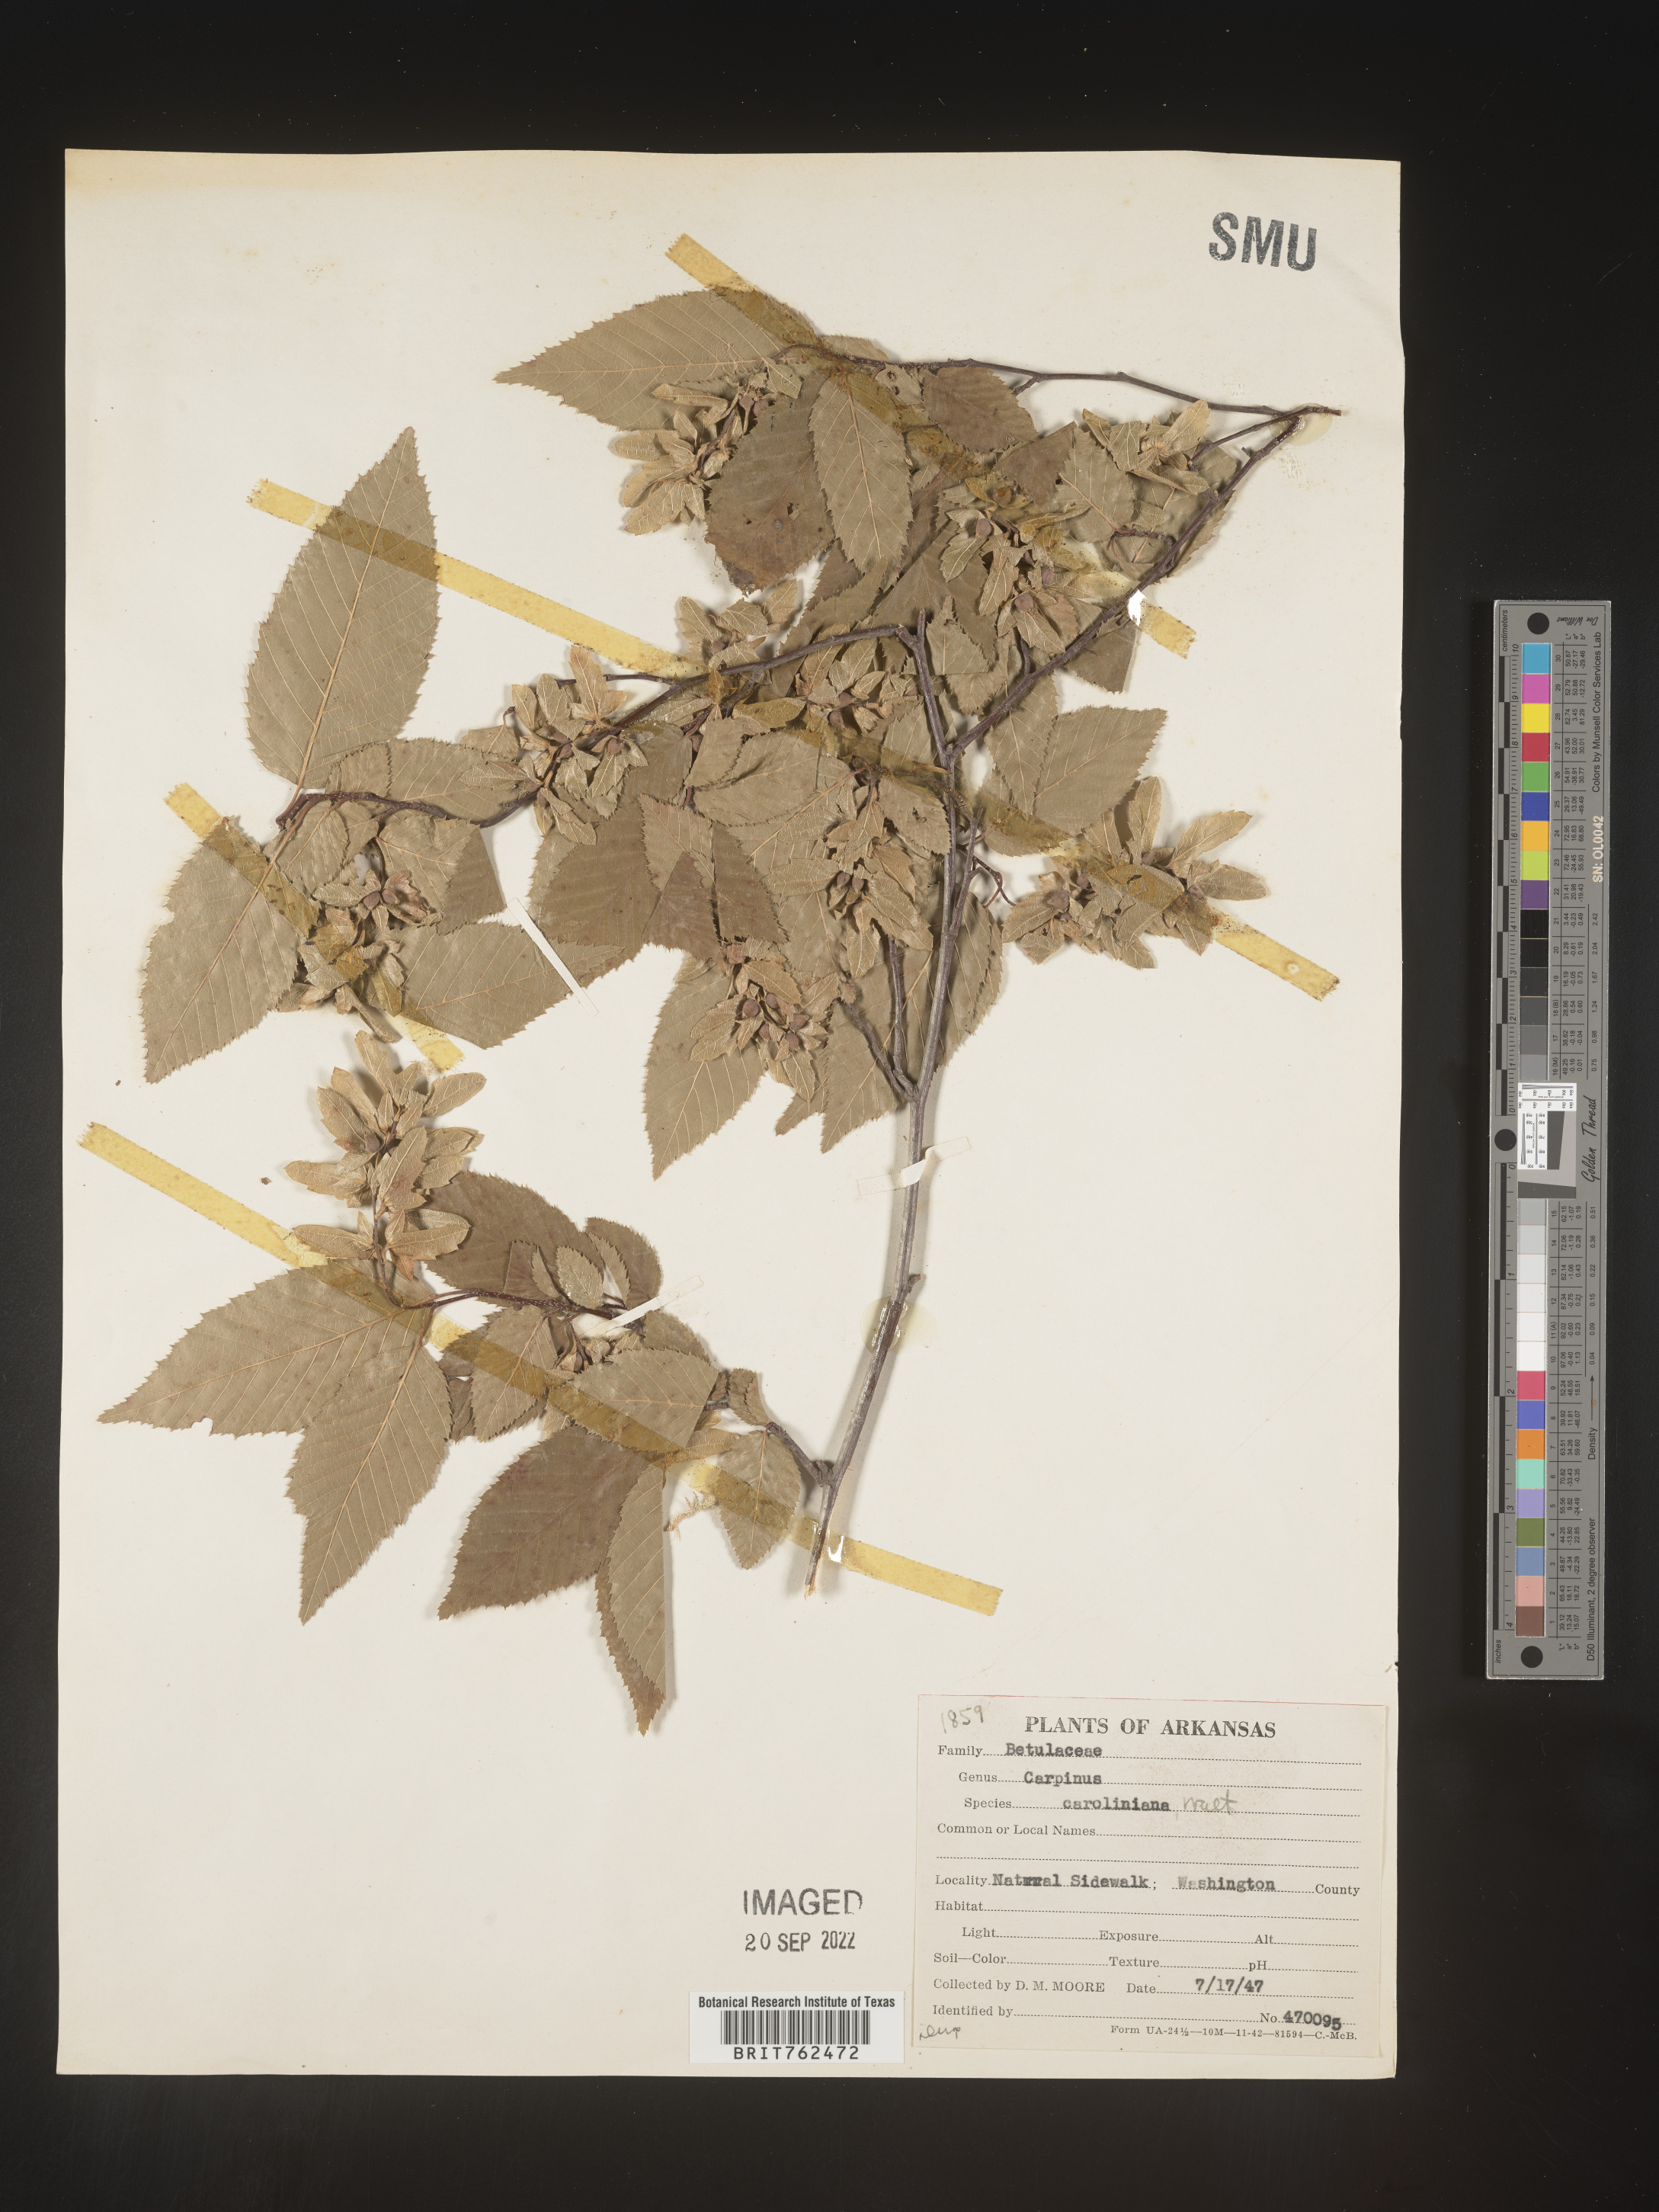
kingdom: Plantae
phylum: Tracheophyta
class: Magnoliopsida
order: Fagales
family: Betulaceae
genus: Carpinus
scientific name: Carpinus caroliniana
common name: American hornbeam
